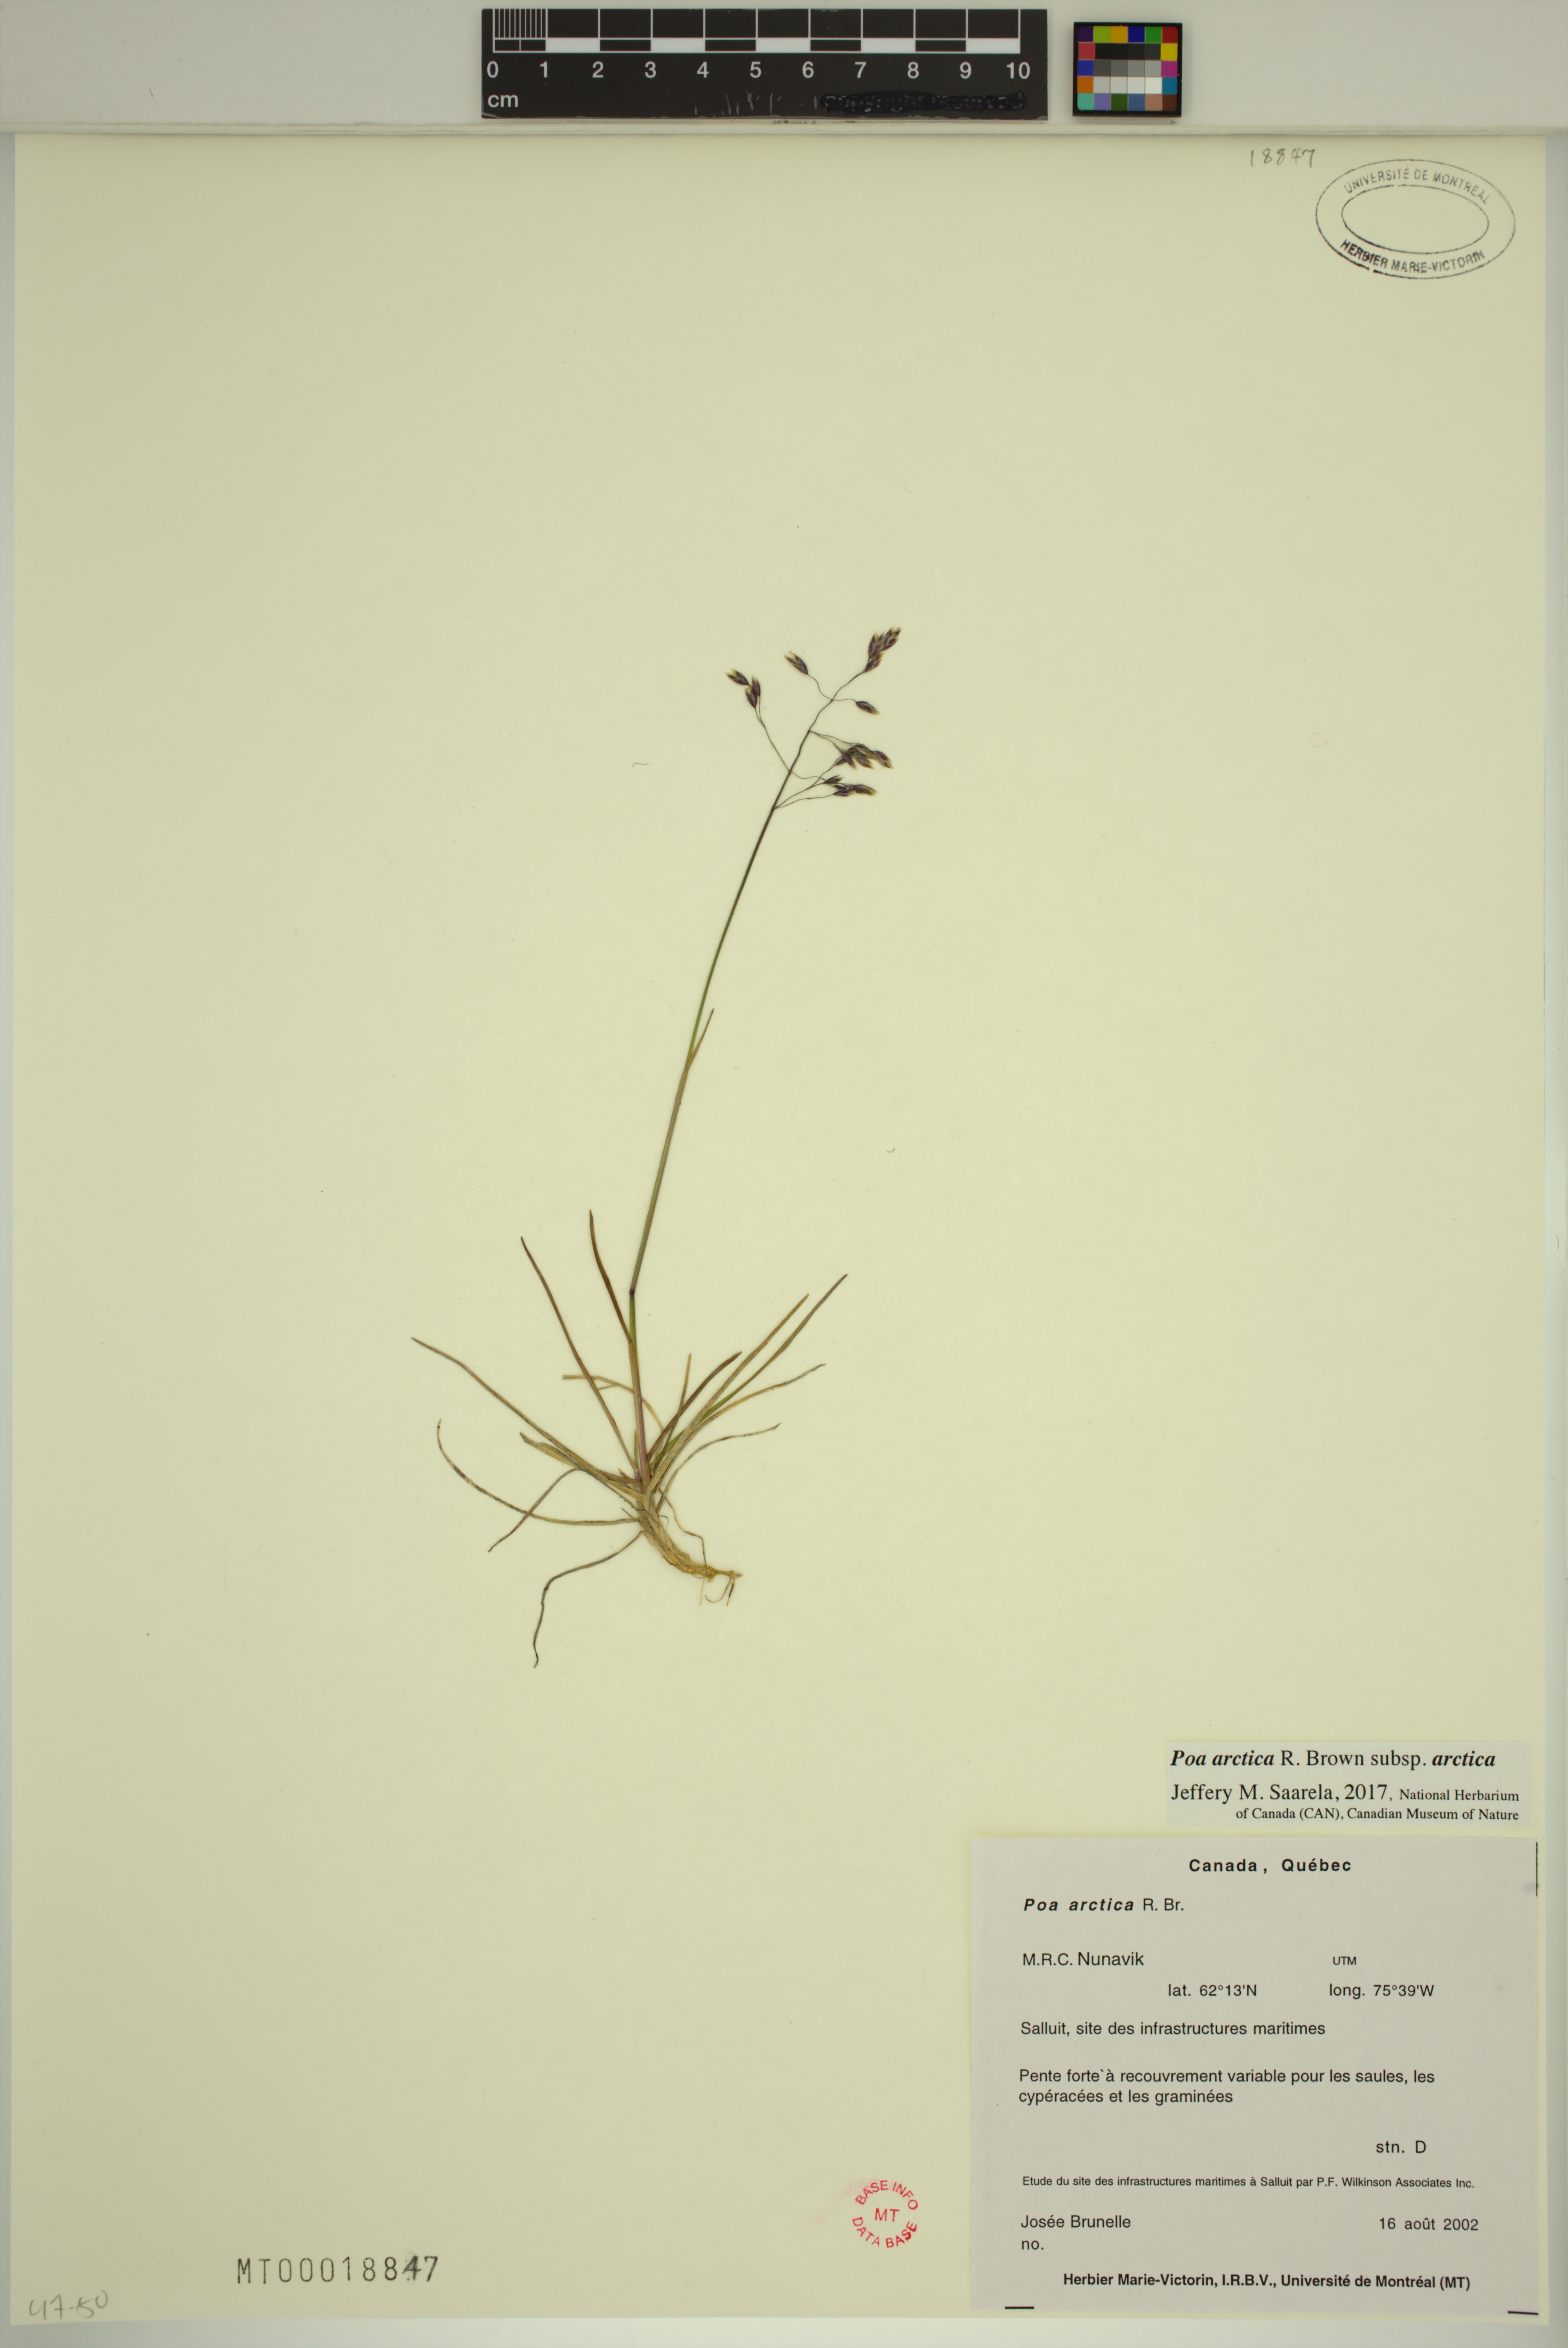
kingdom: Plantae
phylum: Tracheophyta
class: Liliopsida
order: Poales
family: Poaceae
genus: Poa
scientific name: Poa arctica
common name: Arctic bluegrass
